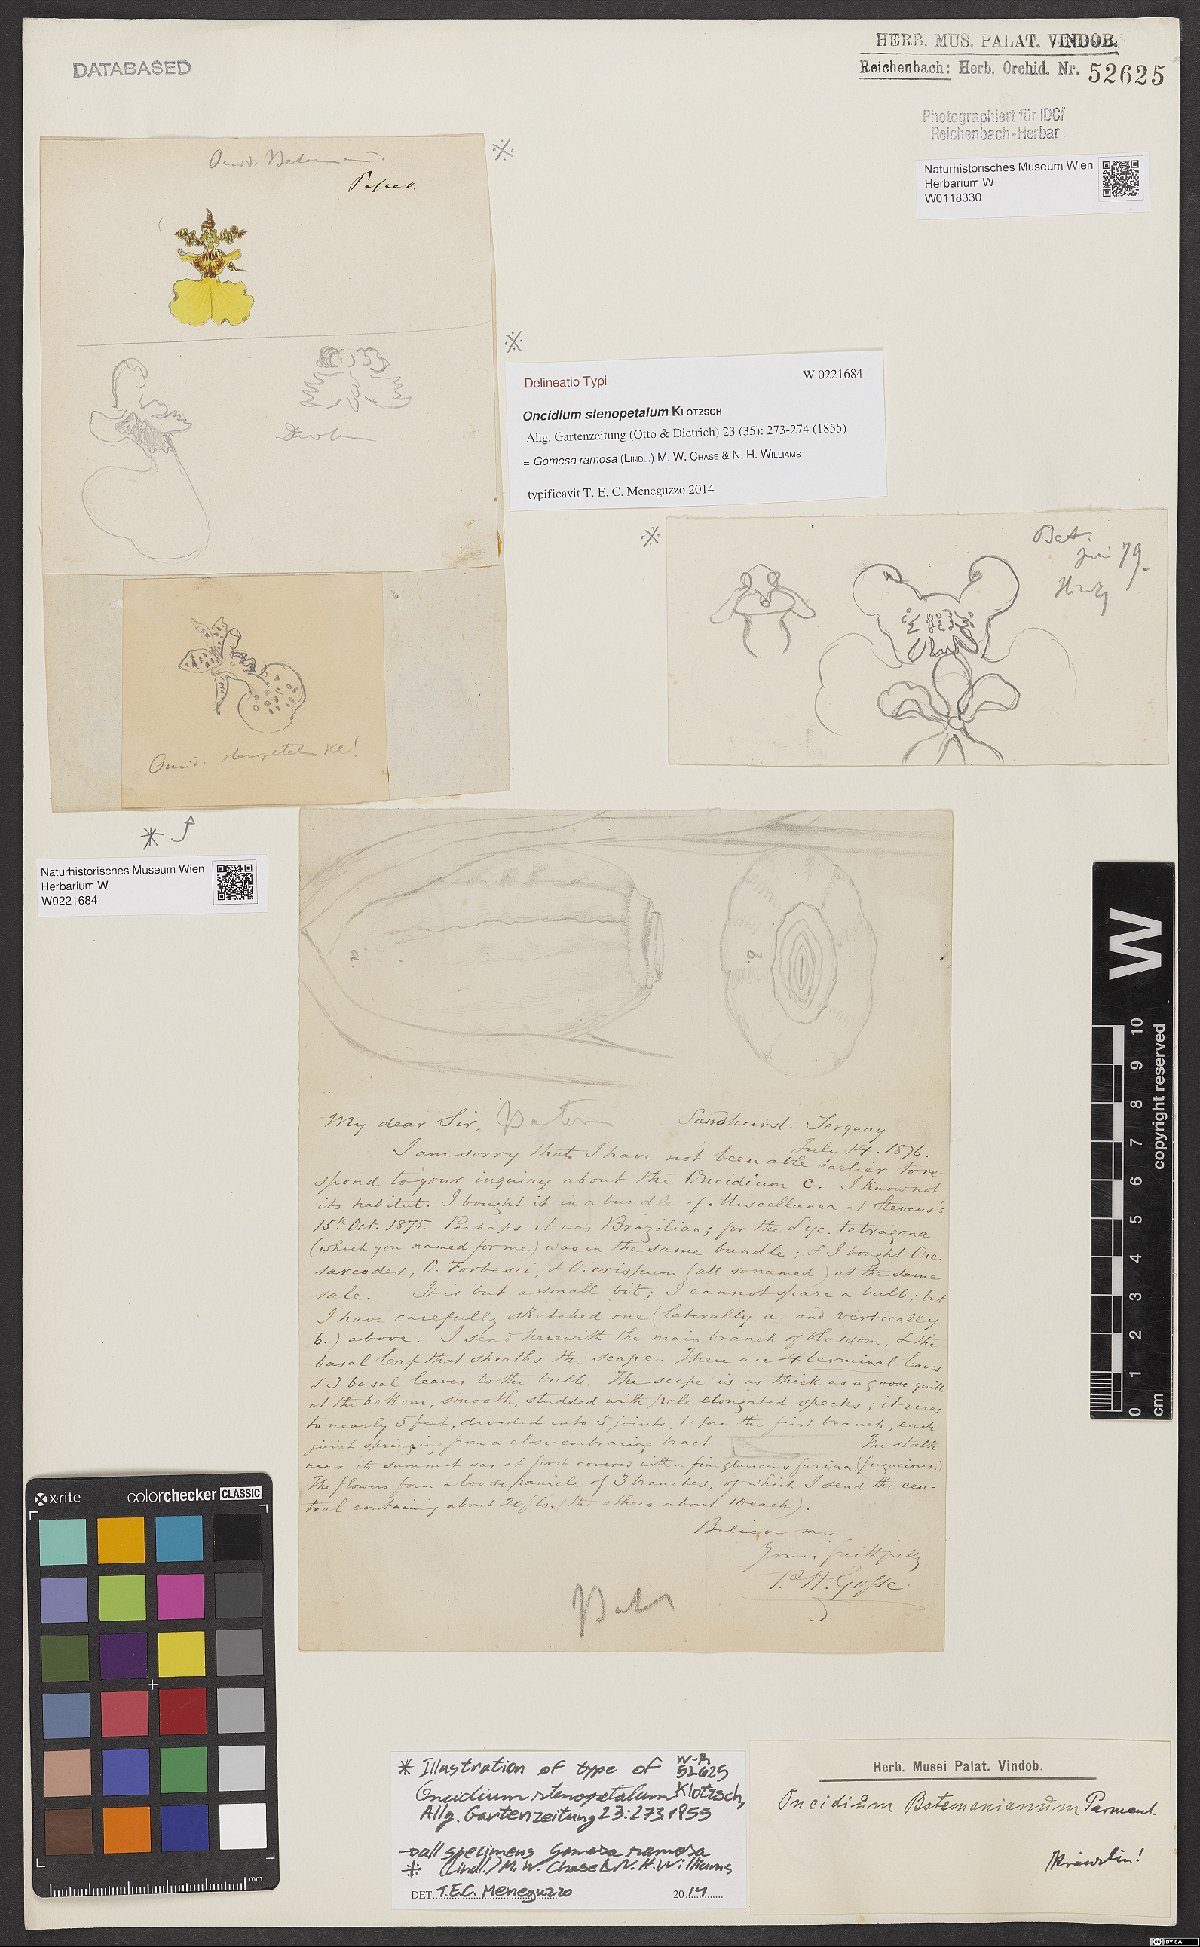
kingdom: Plantae
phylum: Tracheophyta
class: Liliopsida
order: Asparagales
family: Orchidaceae
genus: Gomesa
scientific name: Gomesa ramosa
